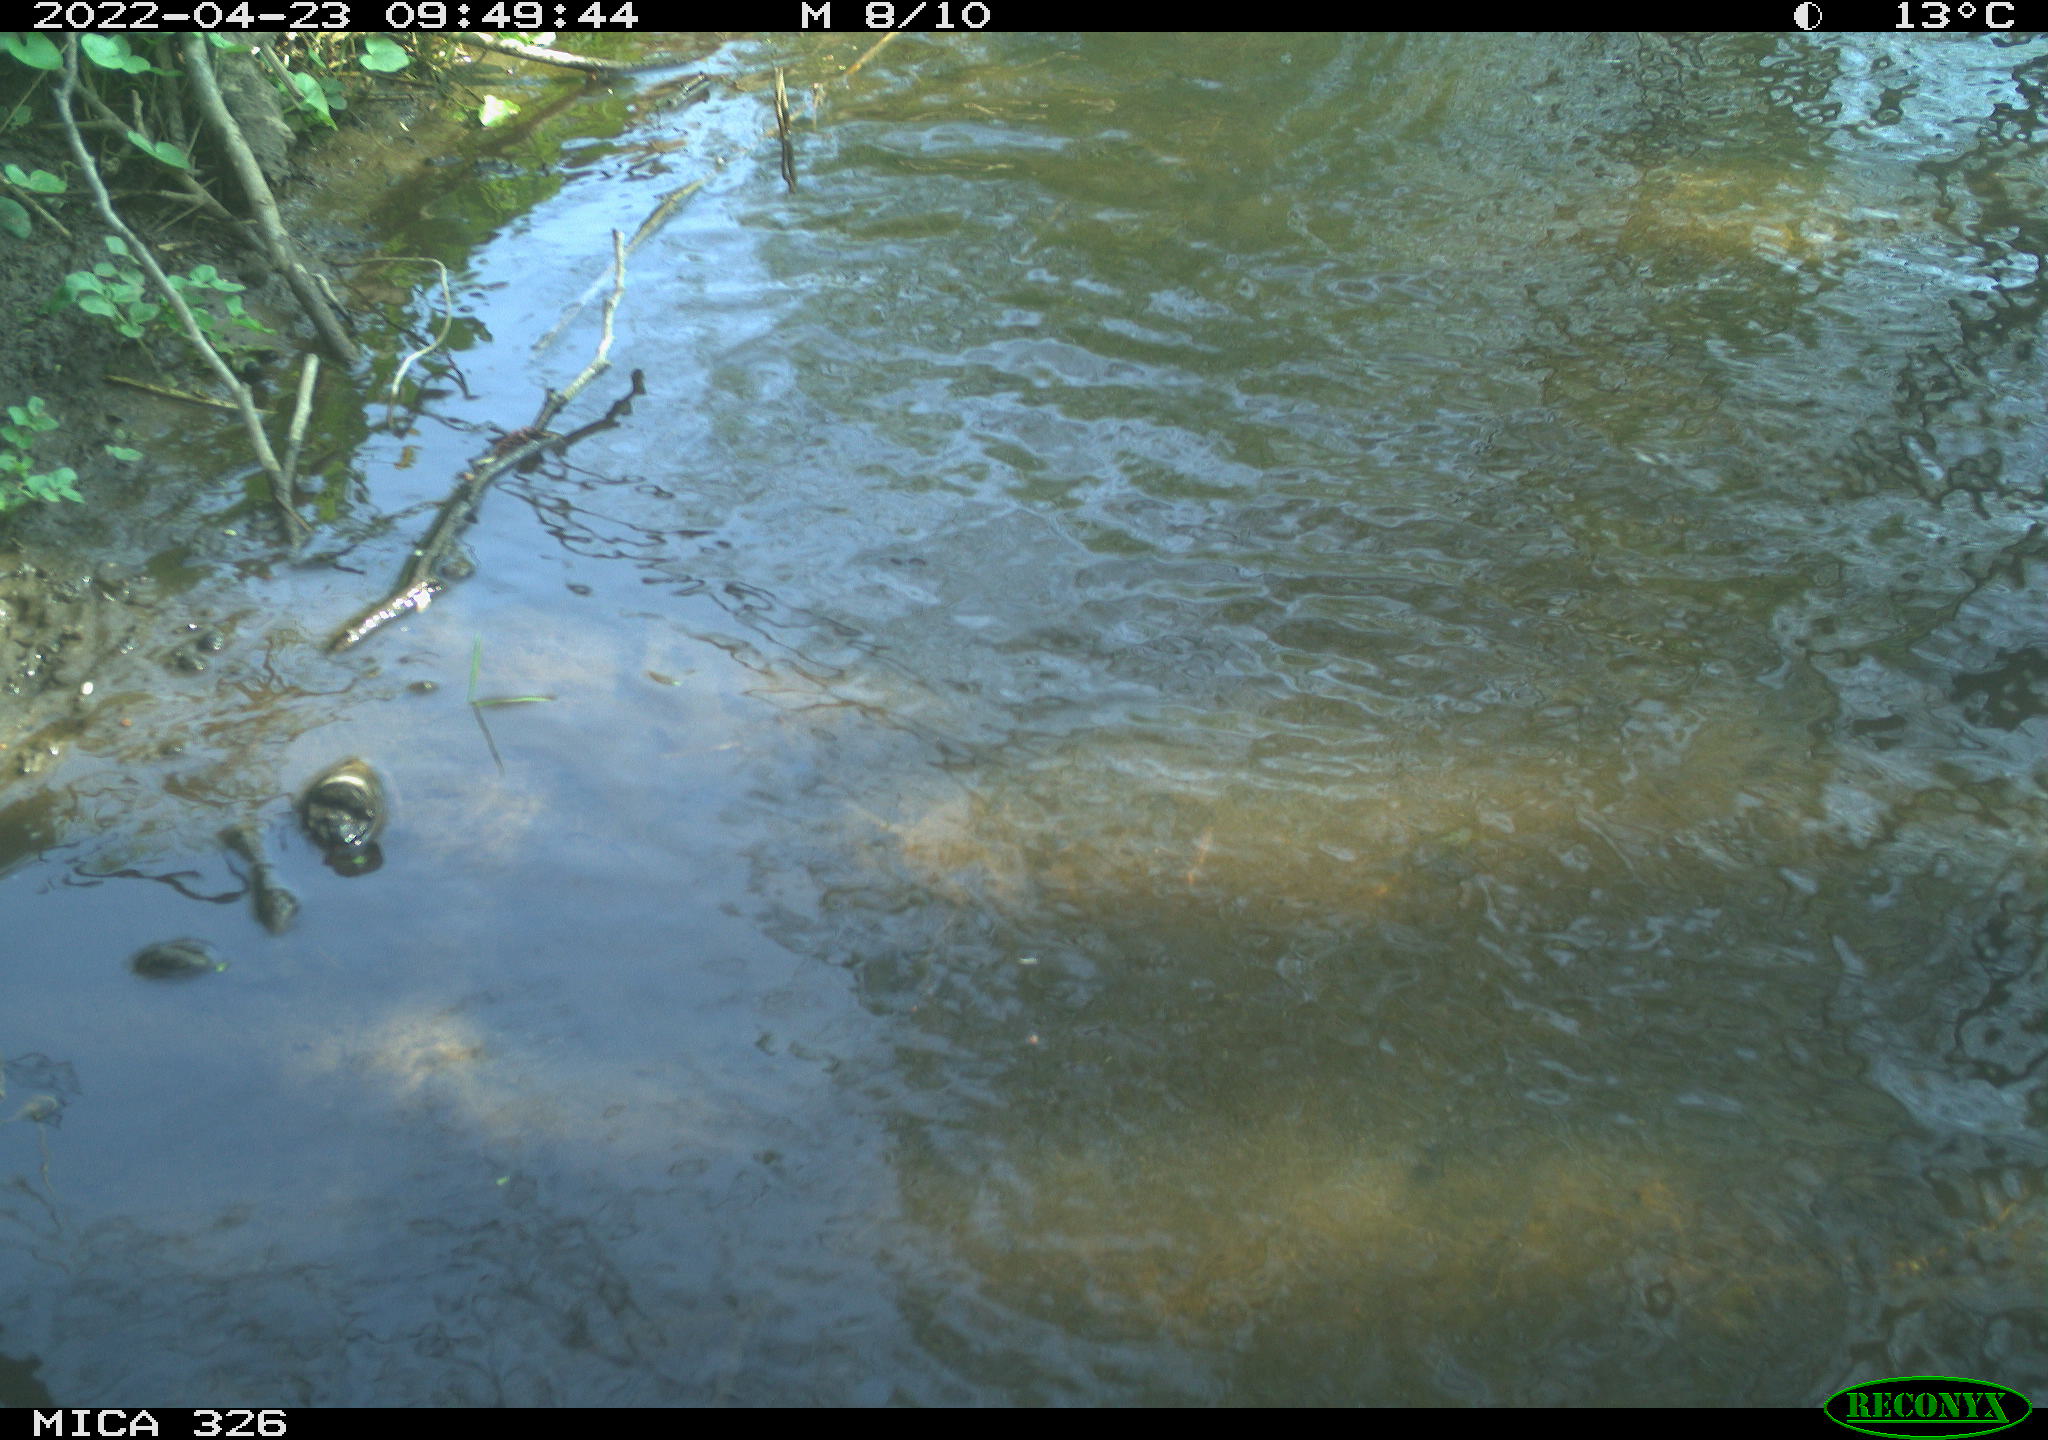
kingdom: Animalia
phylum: Chordata
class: Mammalia
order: Rodentia
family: Cricetidae
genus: Ondatra
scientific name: Ondatra zibethicus
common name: Muskrat
